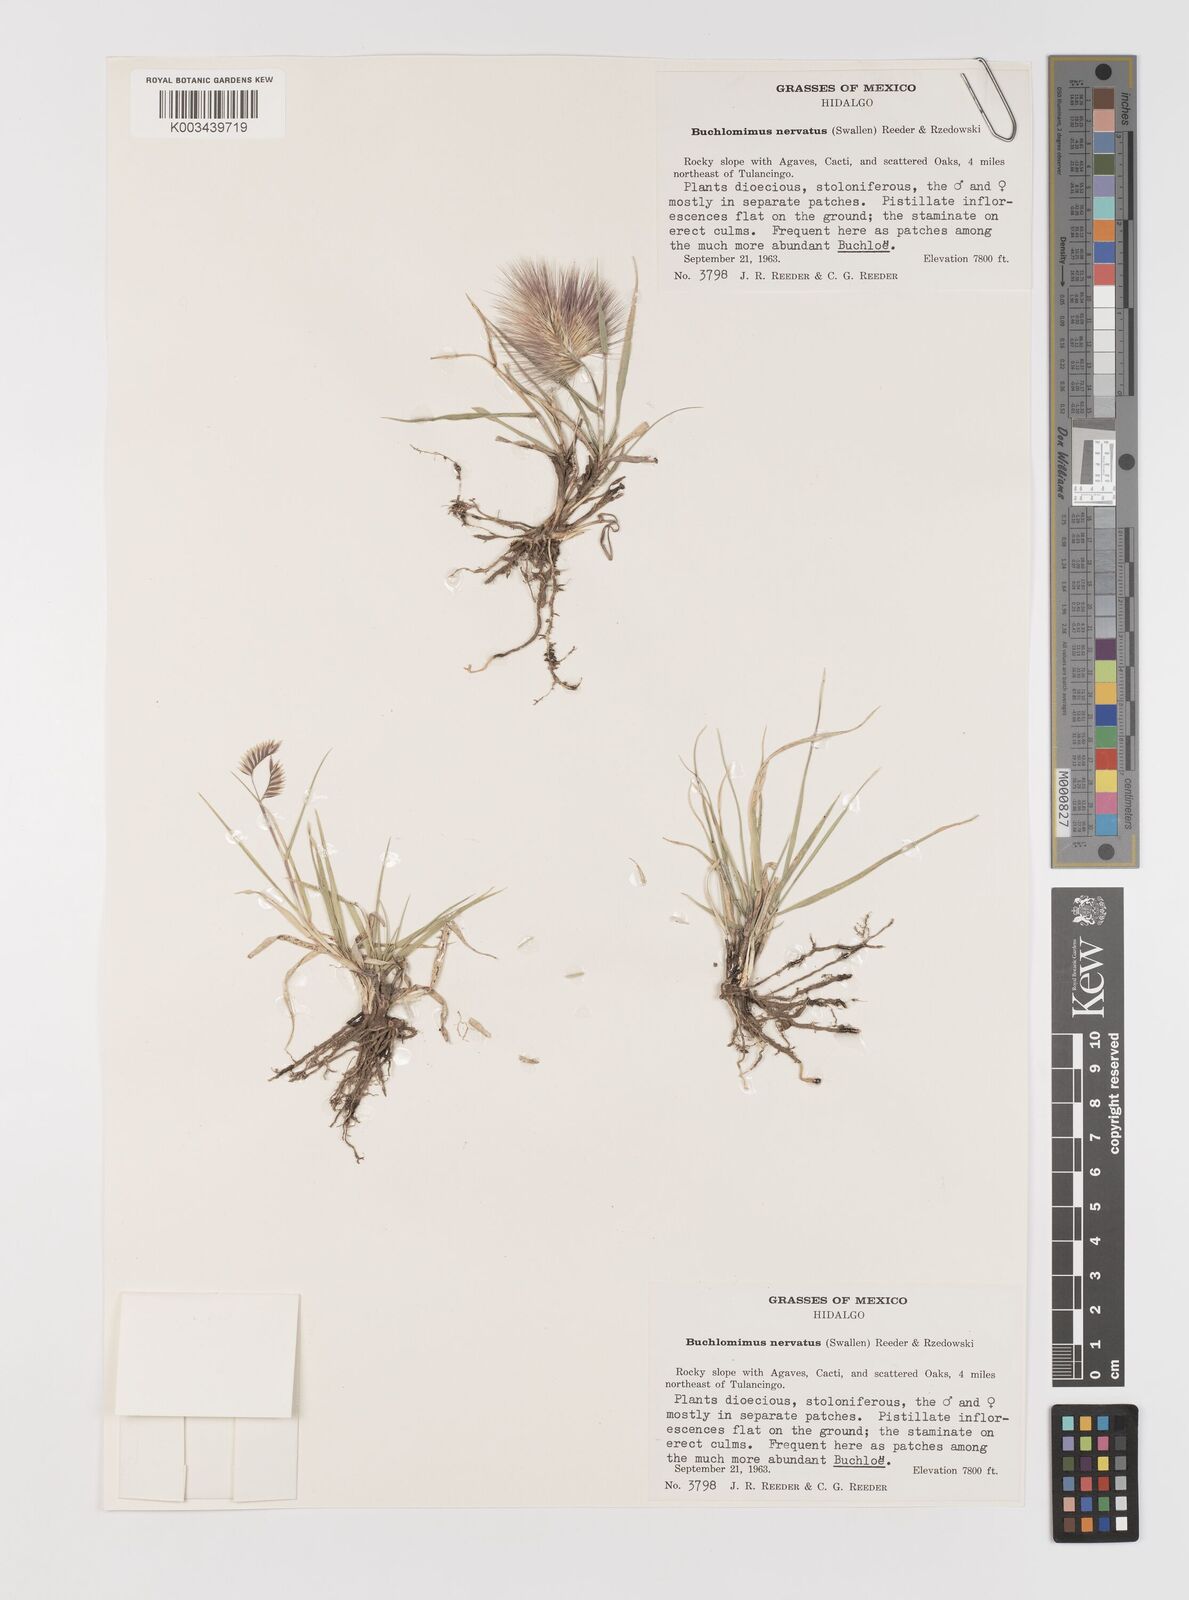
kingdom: Plantae
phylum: Tracheophyta
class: Liliopsida
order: Poales
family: Poaceae
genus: Bouteloua
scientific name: Bouteloua nervata
